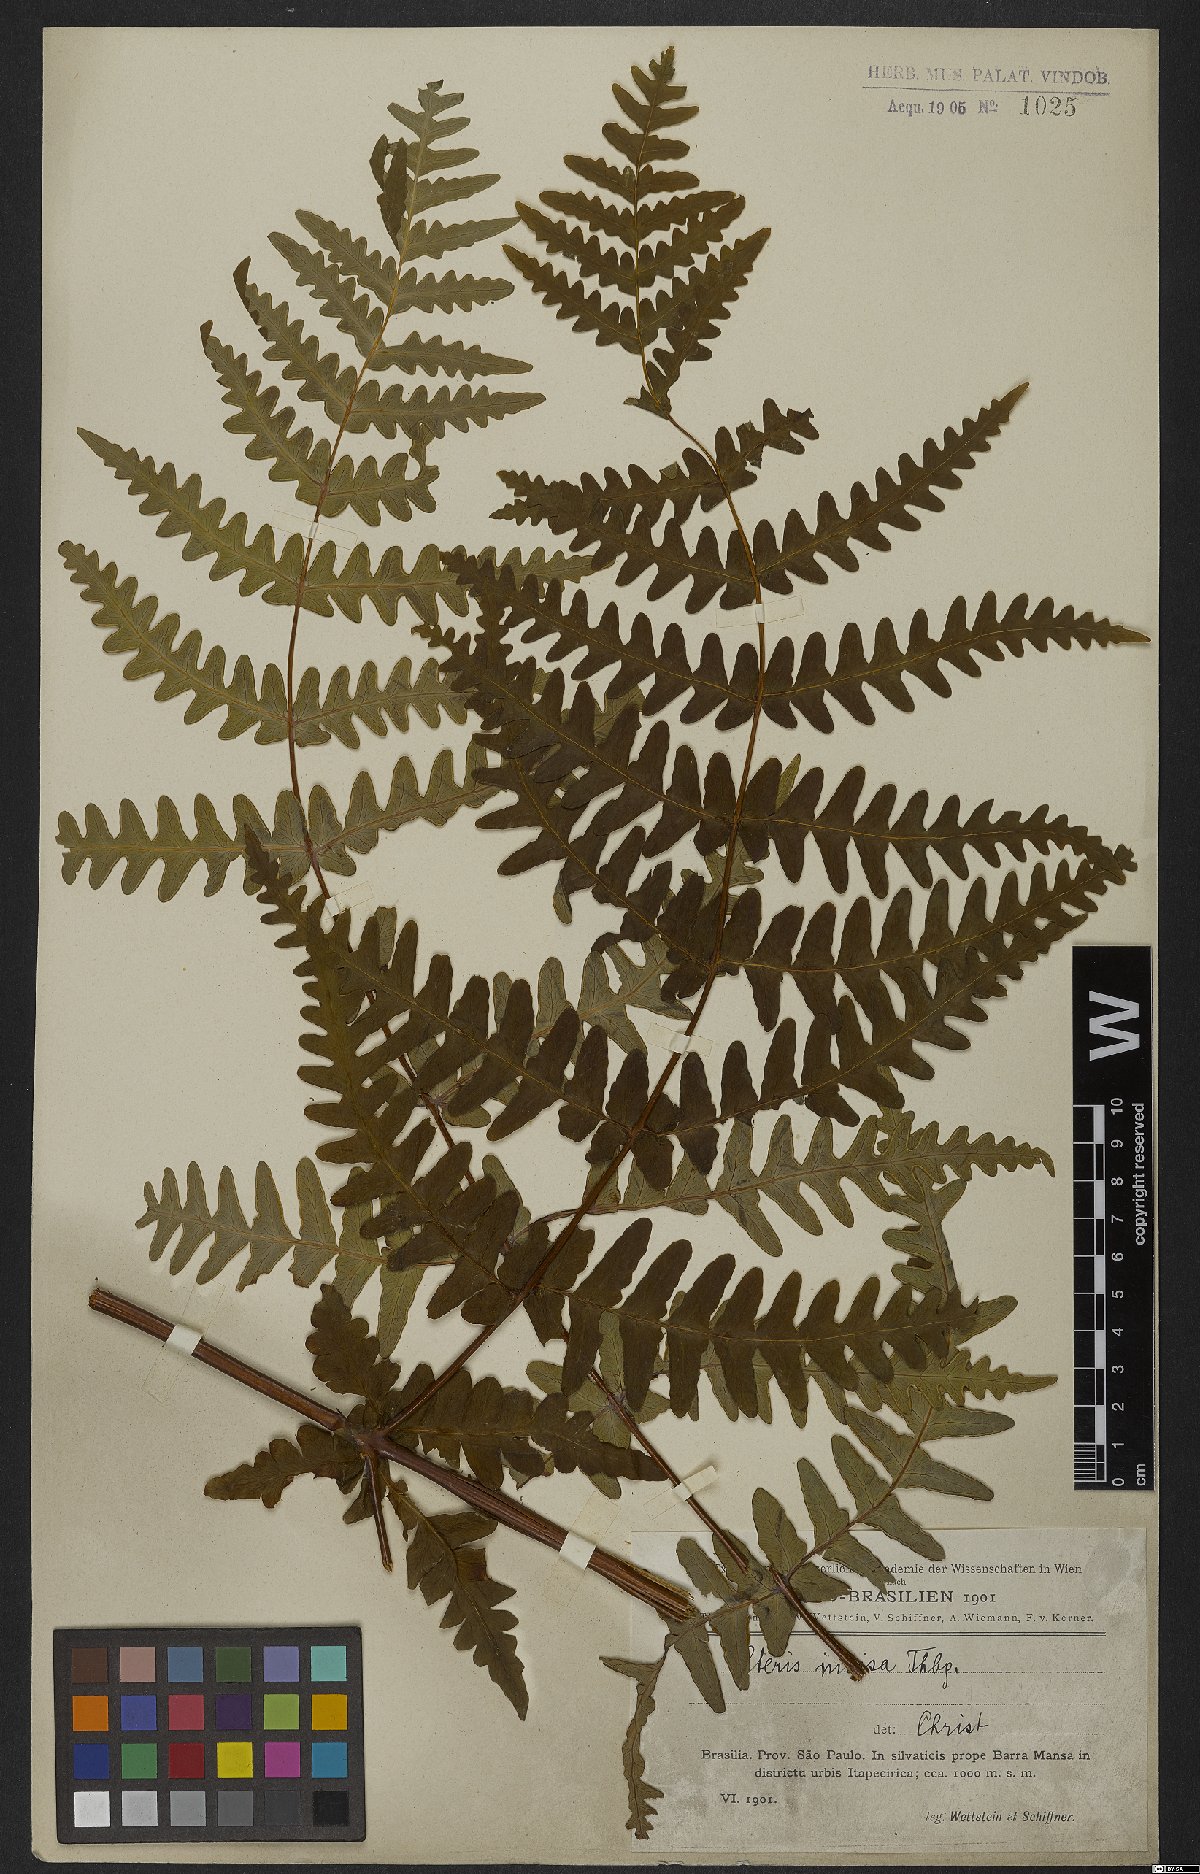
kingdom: Plantae
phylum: Tracheophyta
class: Polypodiopsida
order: Polypodiales
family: Dennstaedtiaceae
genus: Histiopteris
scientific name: Histiopteris incisa
